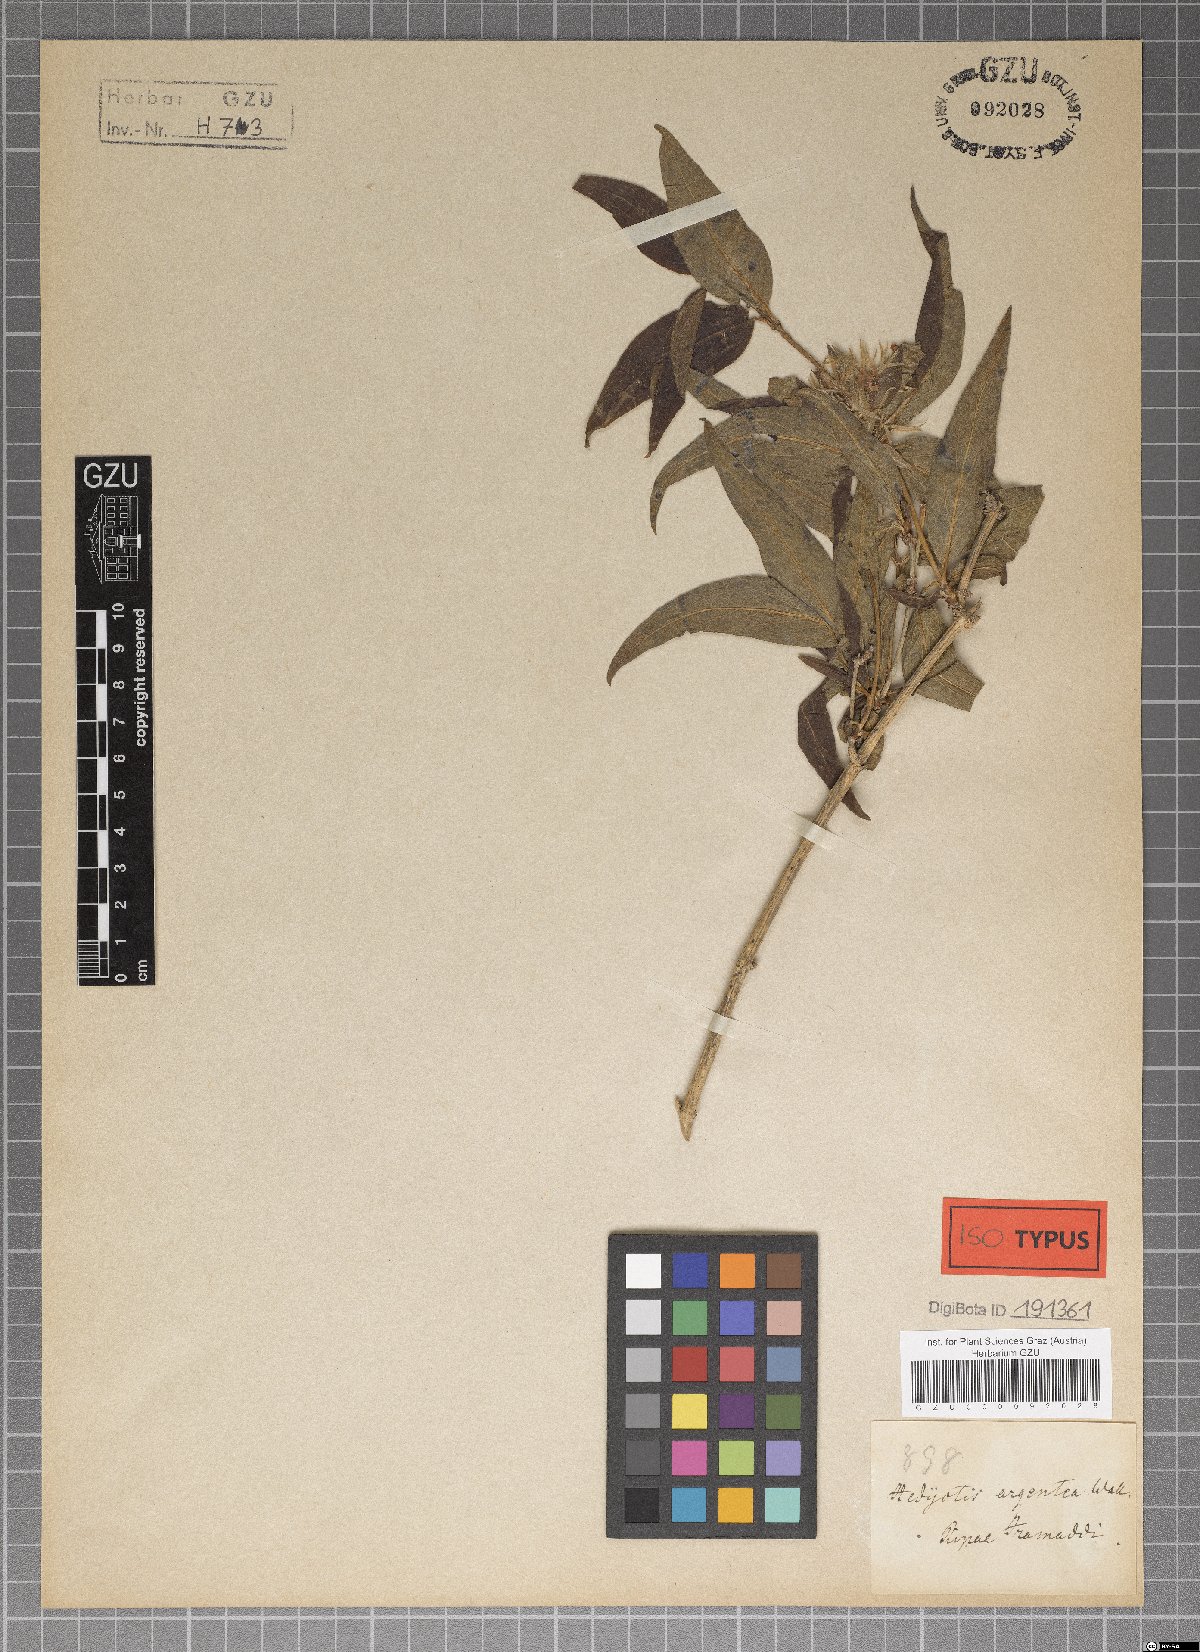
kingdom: Plantae
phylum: Tracheophyta
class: Magnoliopsida
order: Gentianales
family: Rubiaceae
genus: Hedyotis
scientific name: Hedyotis prostrata
